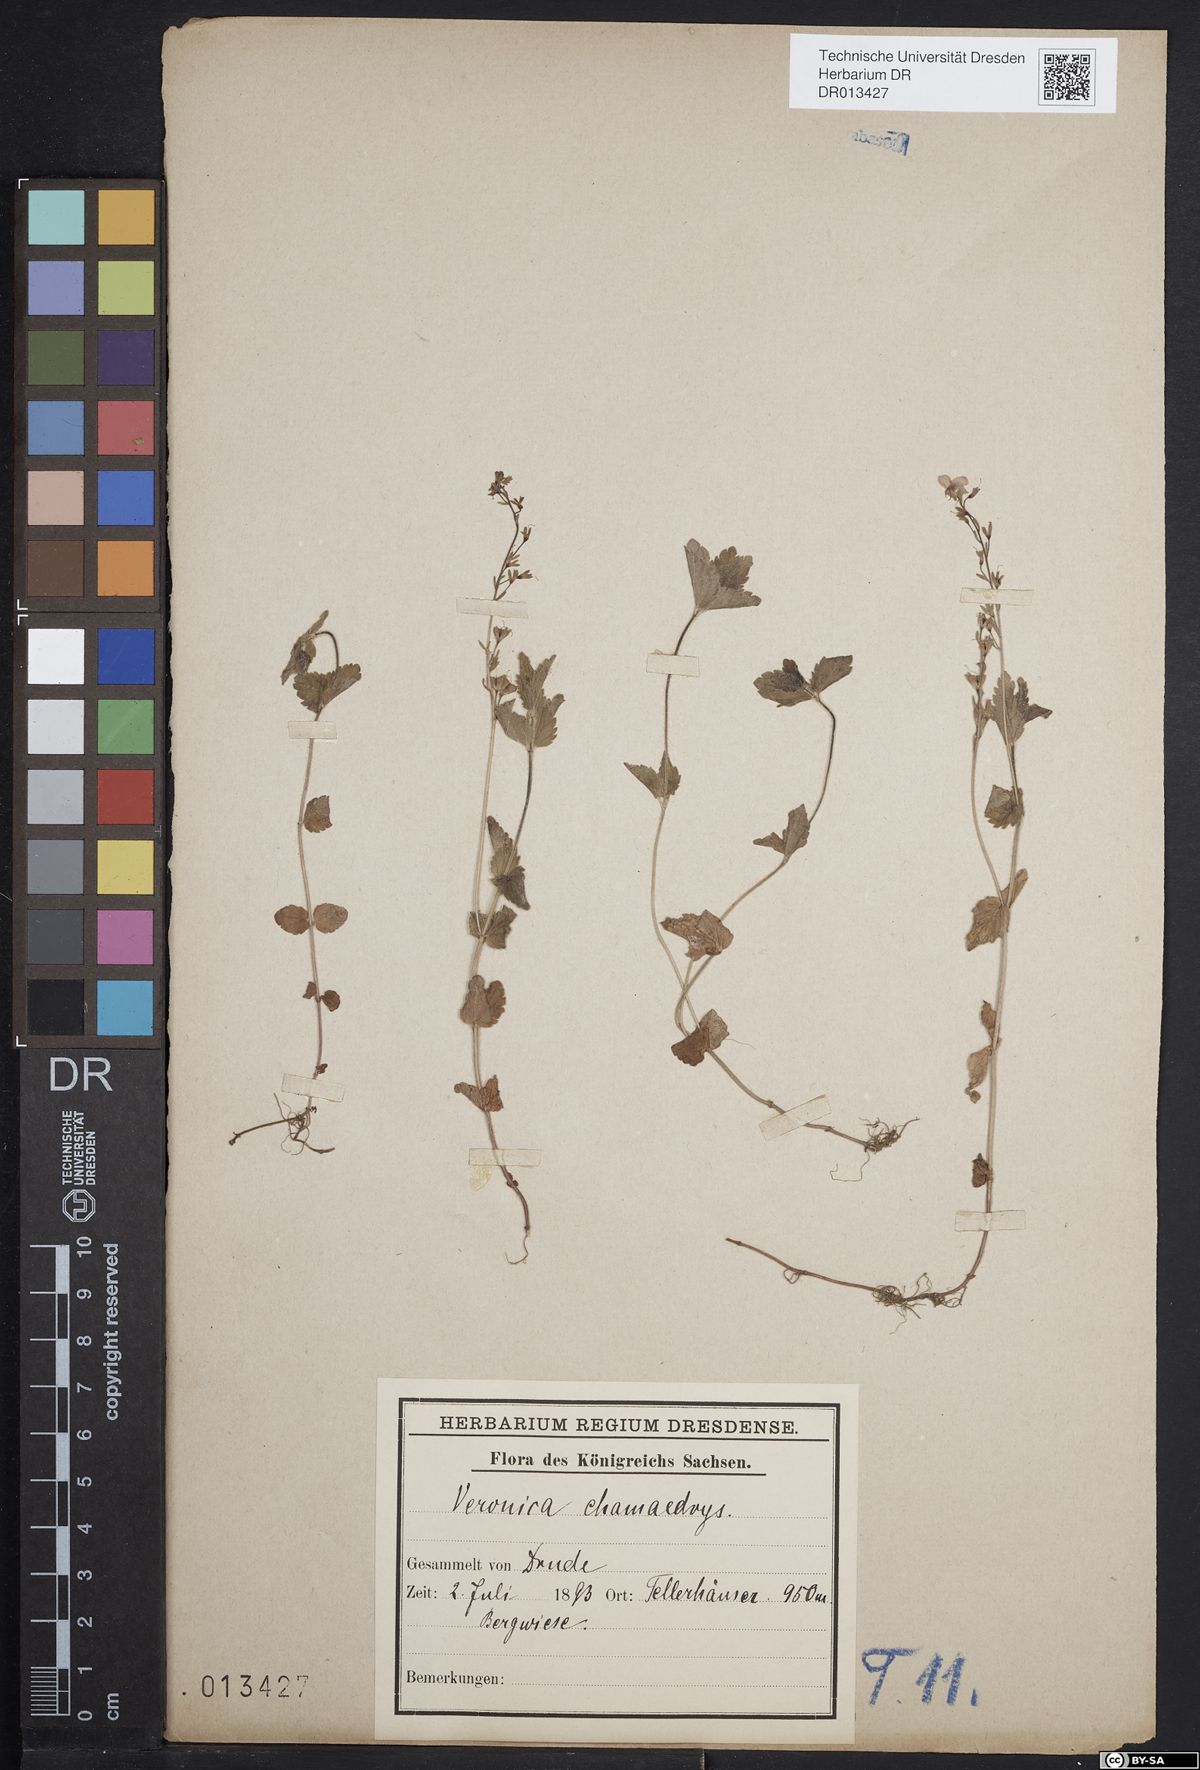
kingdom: Plantae
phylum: Tracheophyta
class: Magnoliopsida
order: Lamiales
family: Plantaginaceae
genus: Veronica
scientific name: Veronica chamaedrys
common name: Germander speedwell
